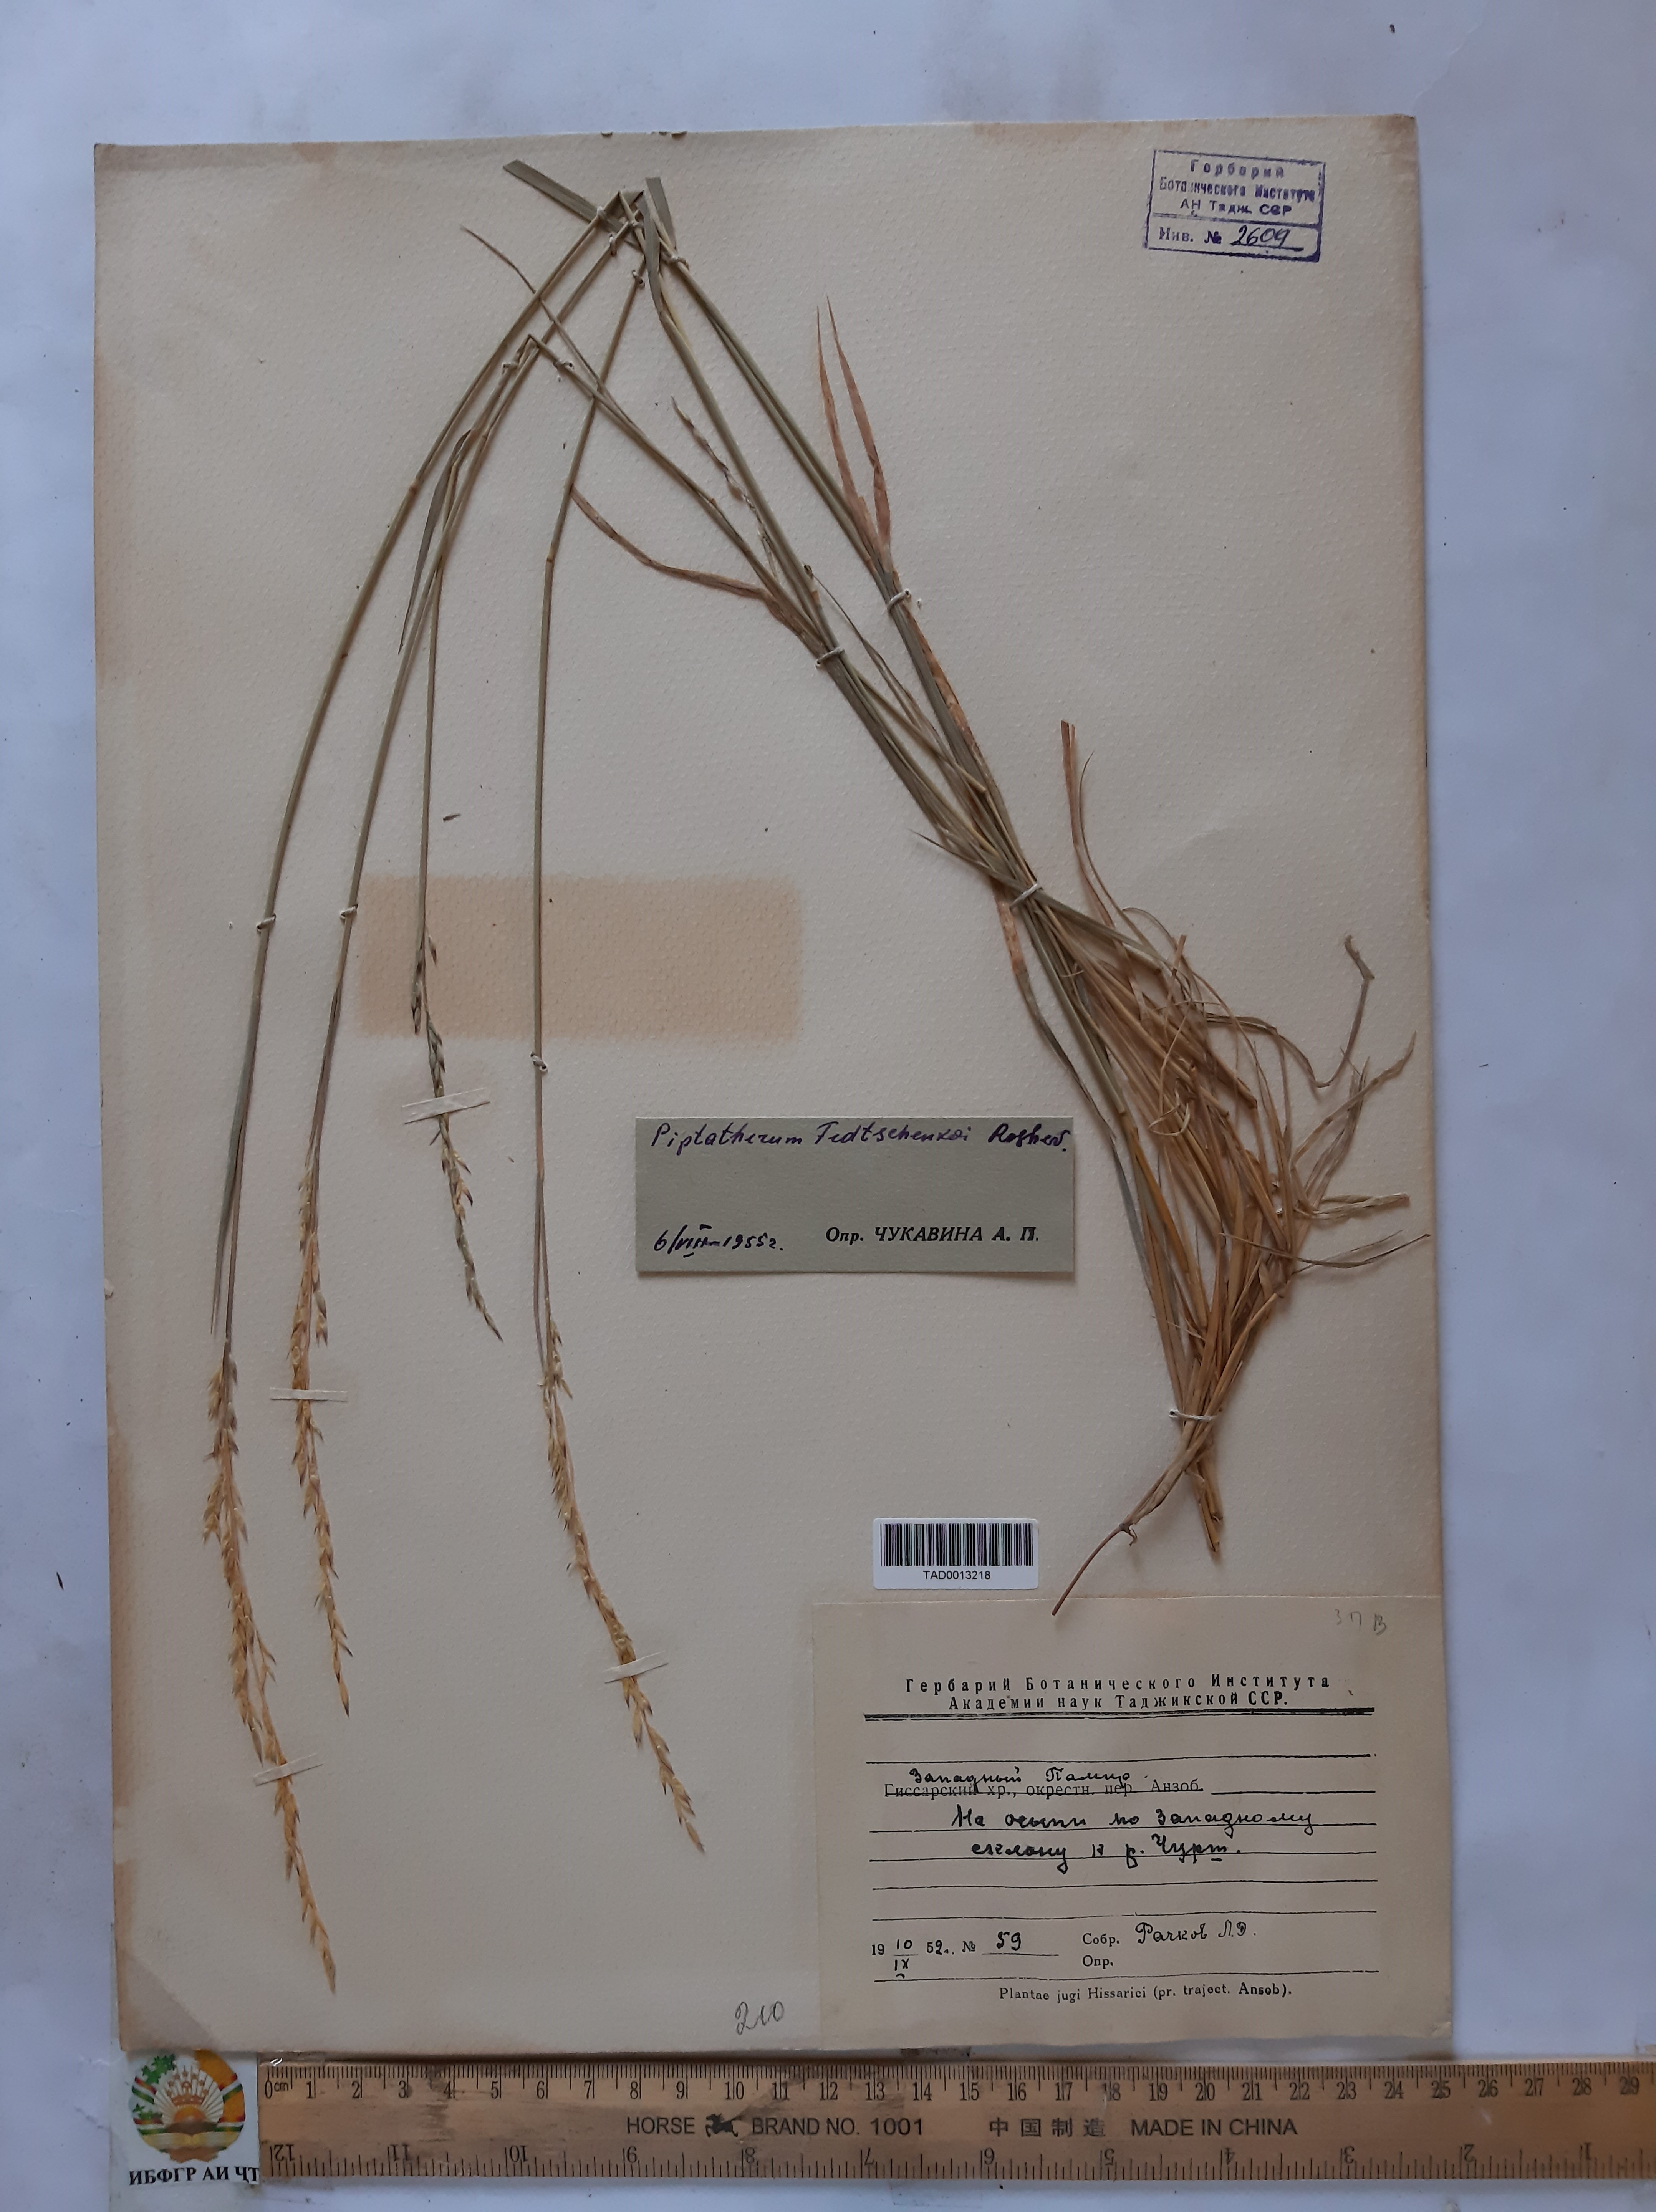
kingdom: Plantae
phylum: Tracheophyta
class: Liliopsida
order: Poales
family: Poaceae
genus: Piptatherum
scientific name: Piptatherum sogdianum
